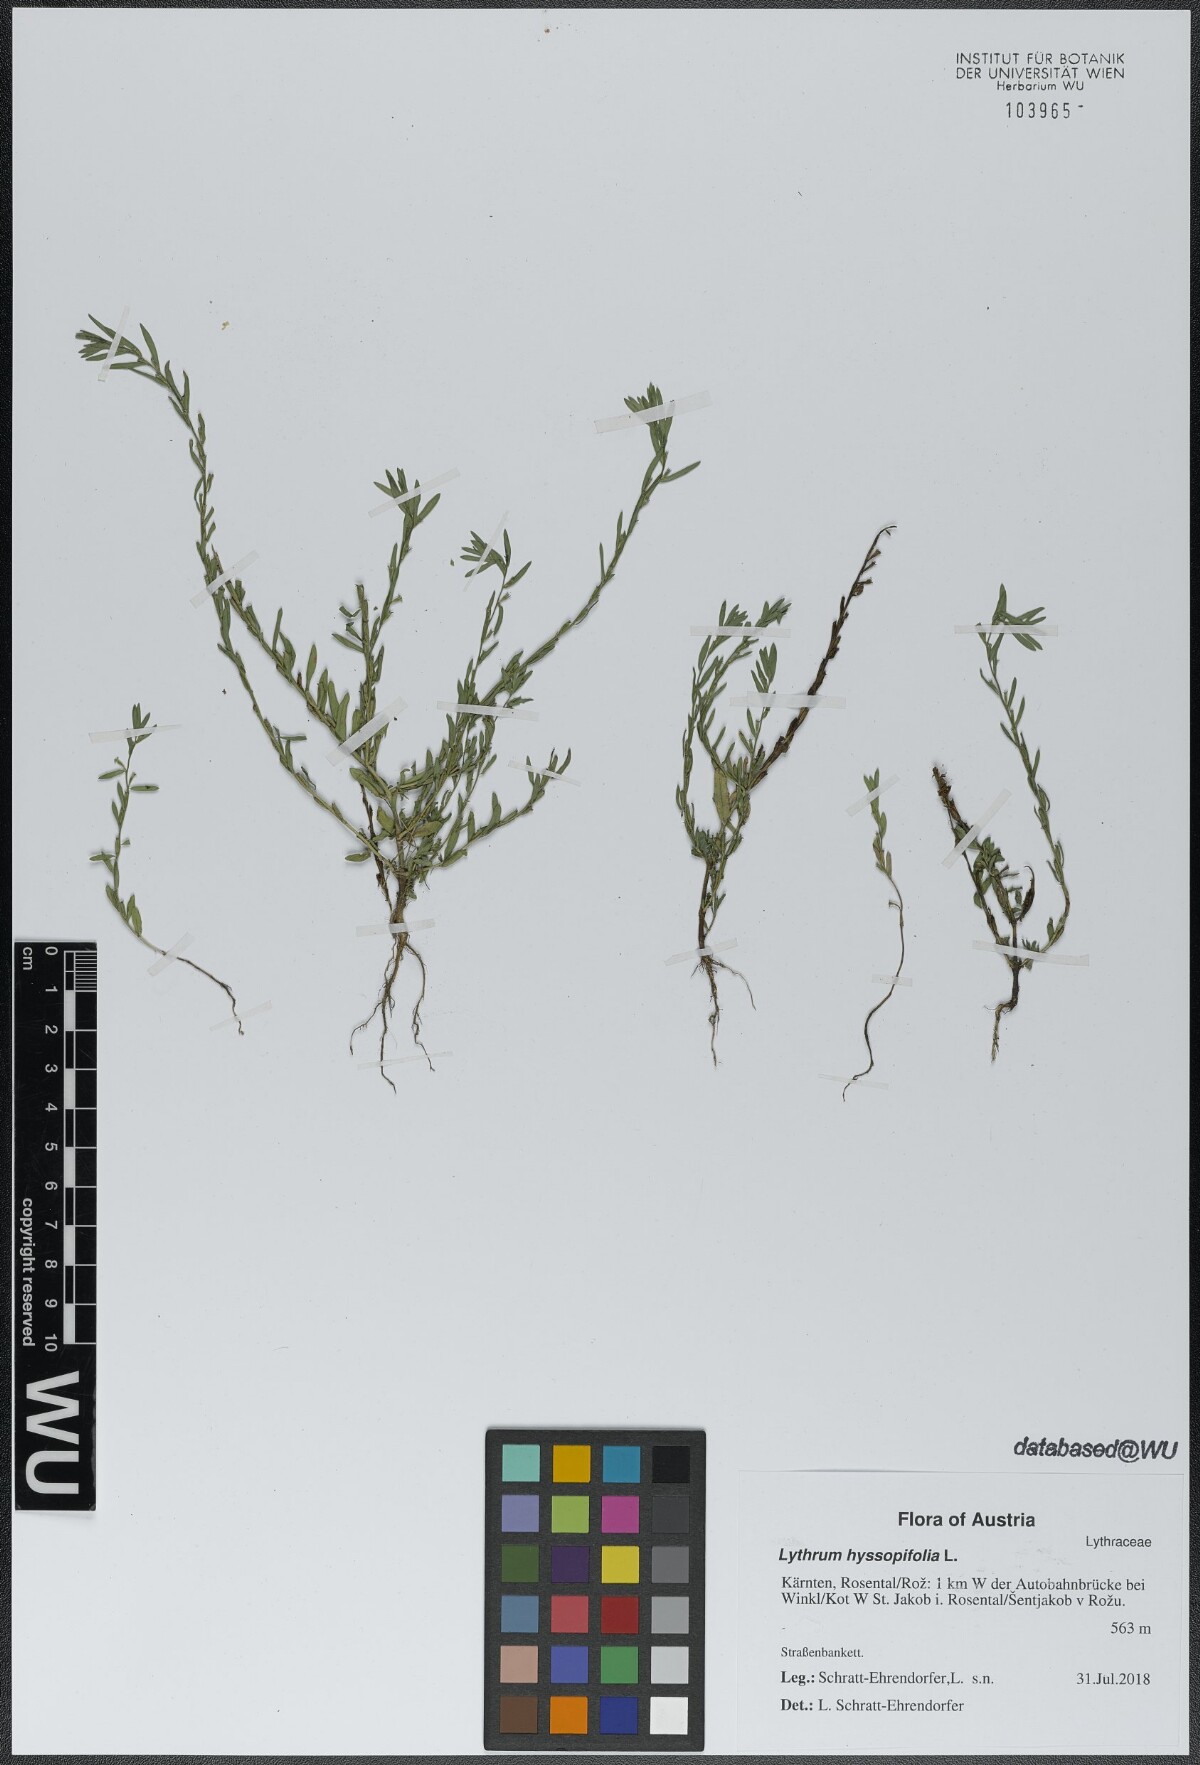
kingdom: Plantae
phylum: Tracheophyta
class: Magnoliopsida
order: Myrtales
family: Lythraceae
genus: Lythrum
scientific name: Lythrum hyssopifolia
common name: Grass-poly
